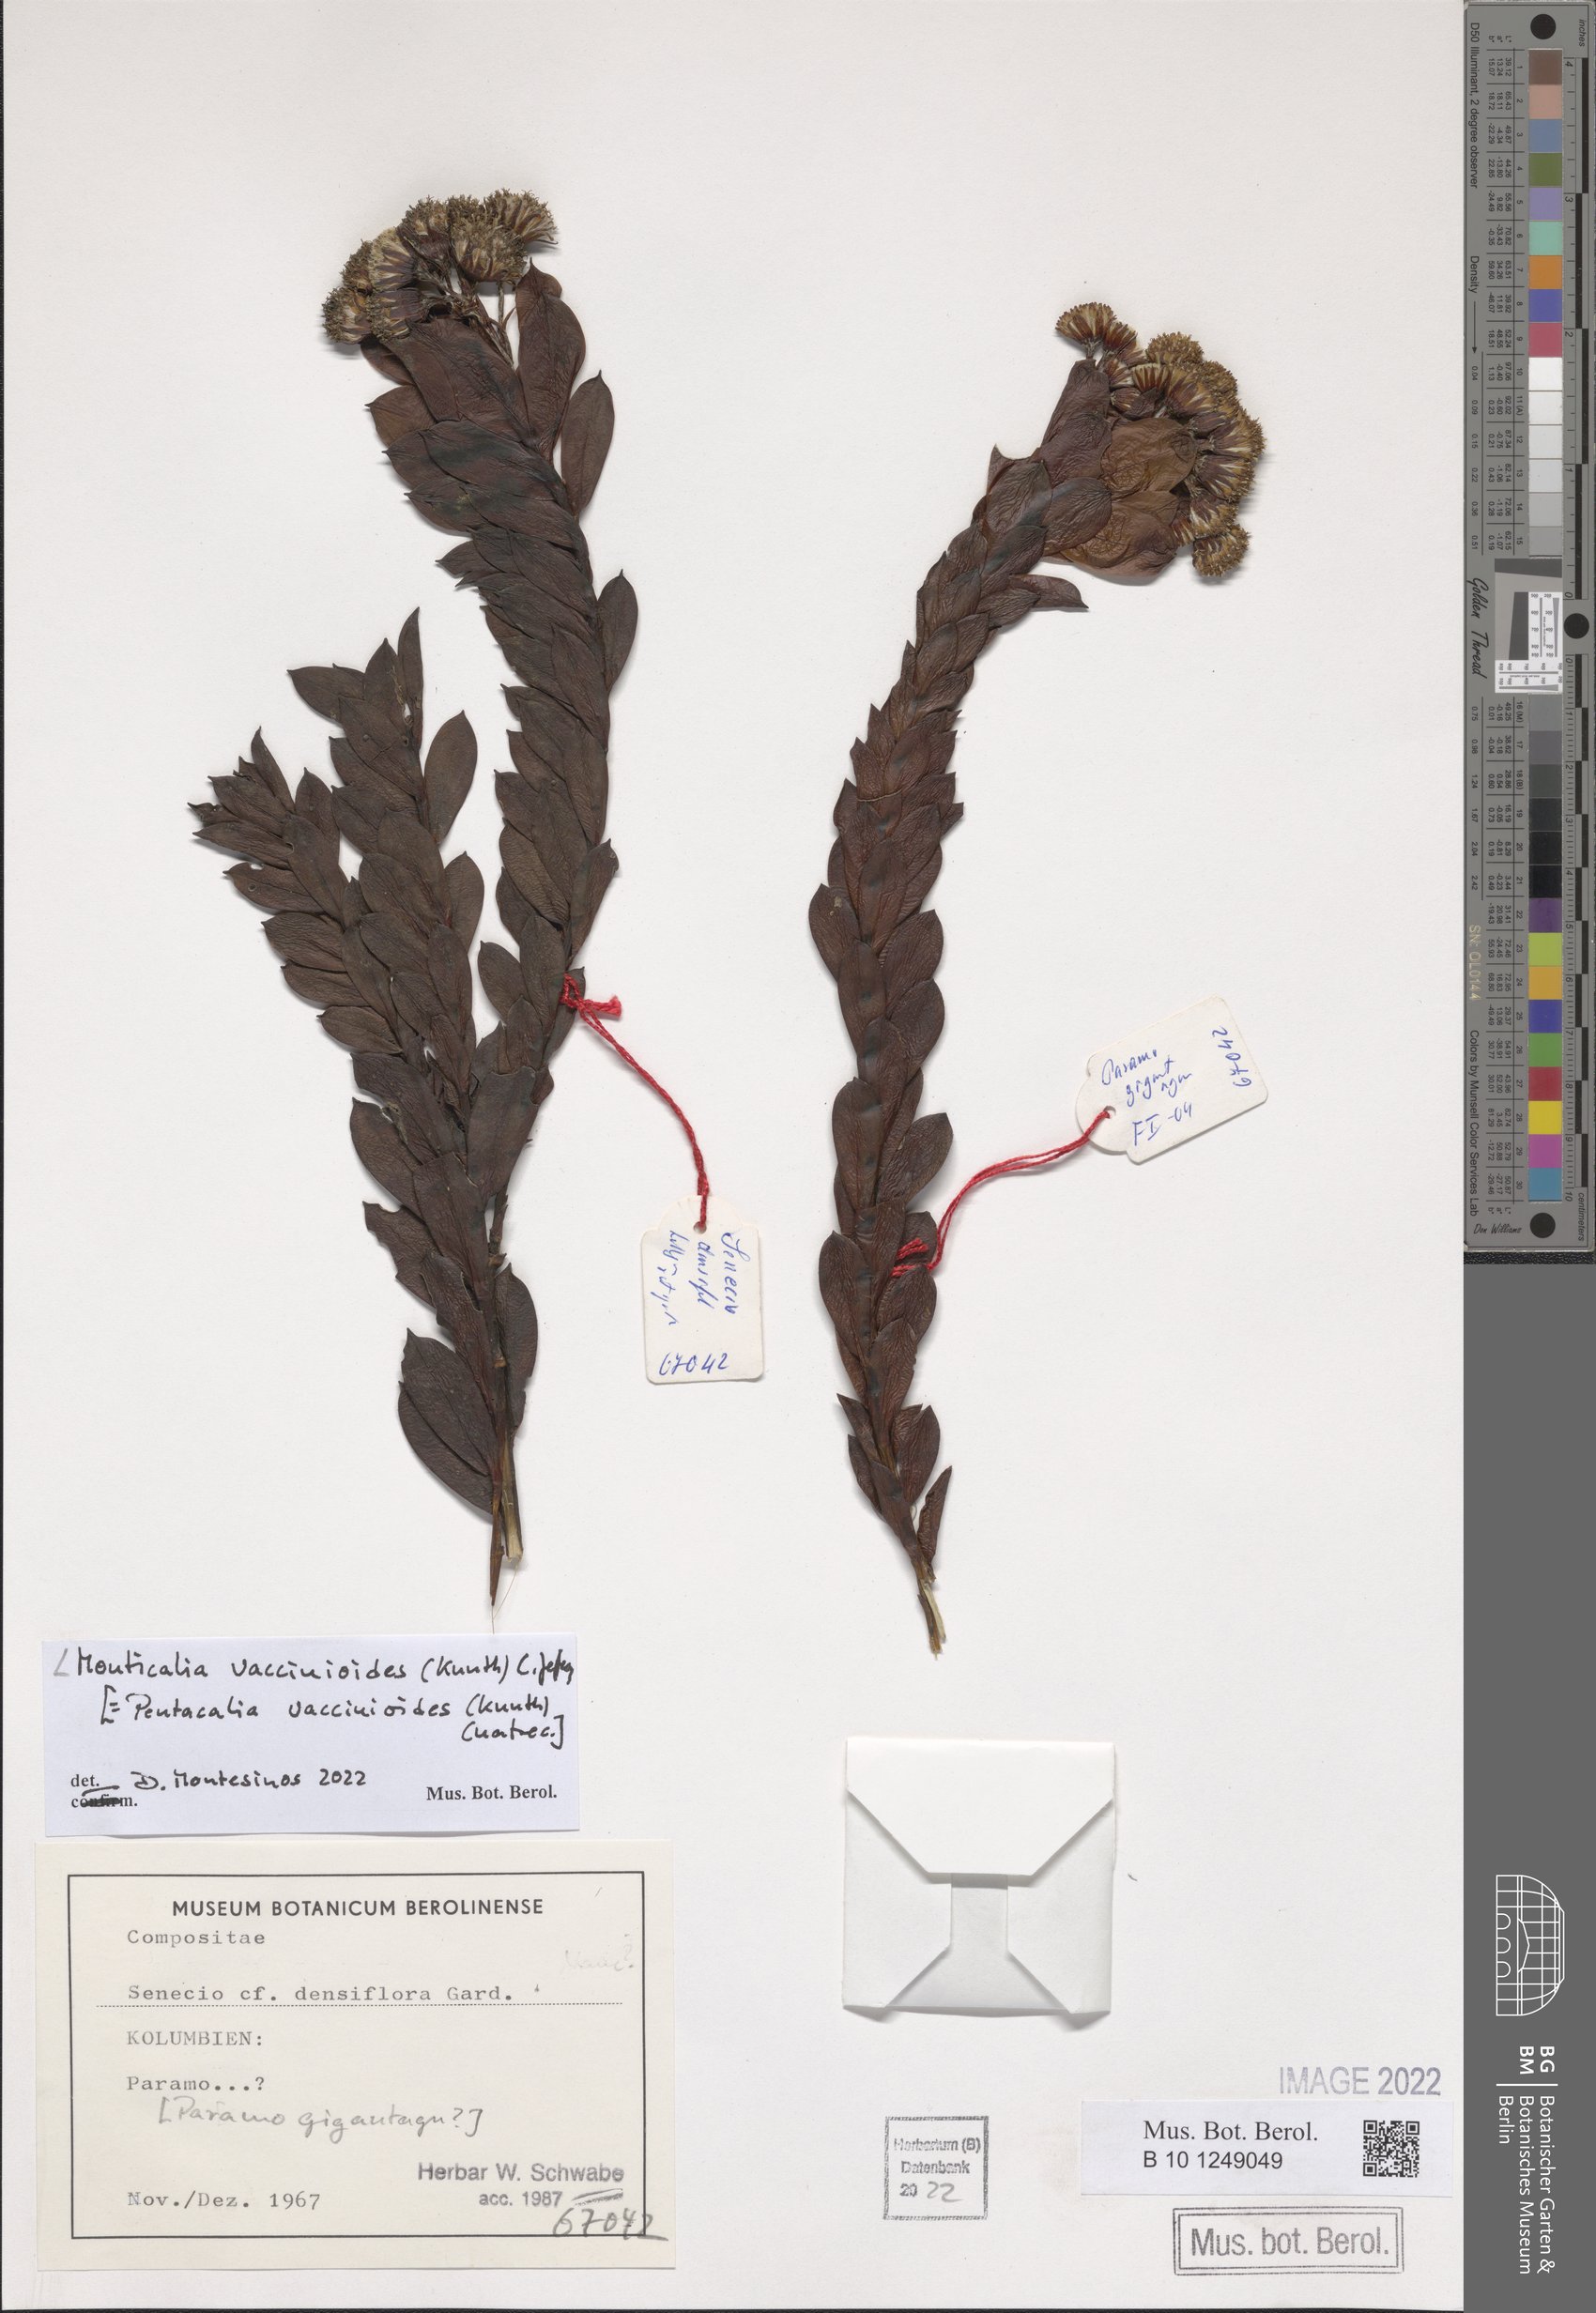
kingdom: Plantae
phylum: Tracheophyta
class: Magnoliopsida
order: Asterales
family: Asteraceae
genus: Monticalia
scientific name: Monticalia vaccinioides
